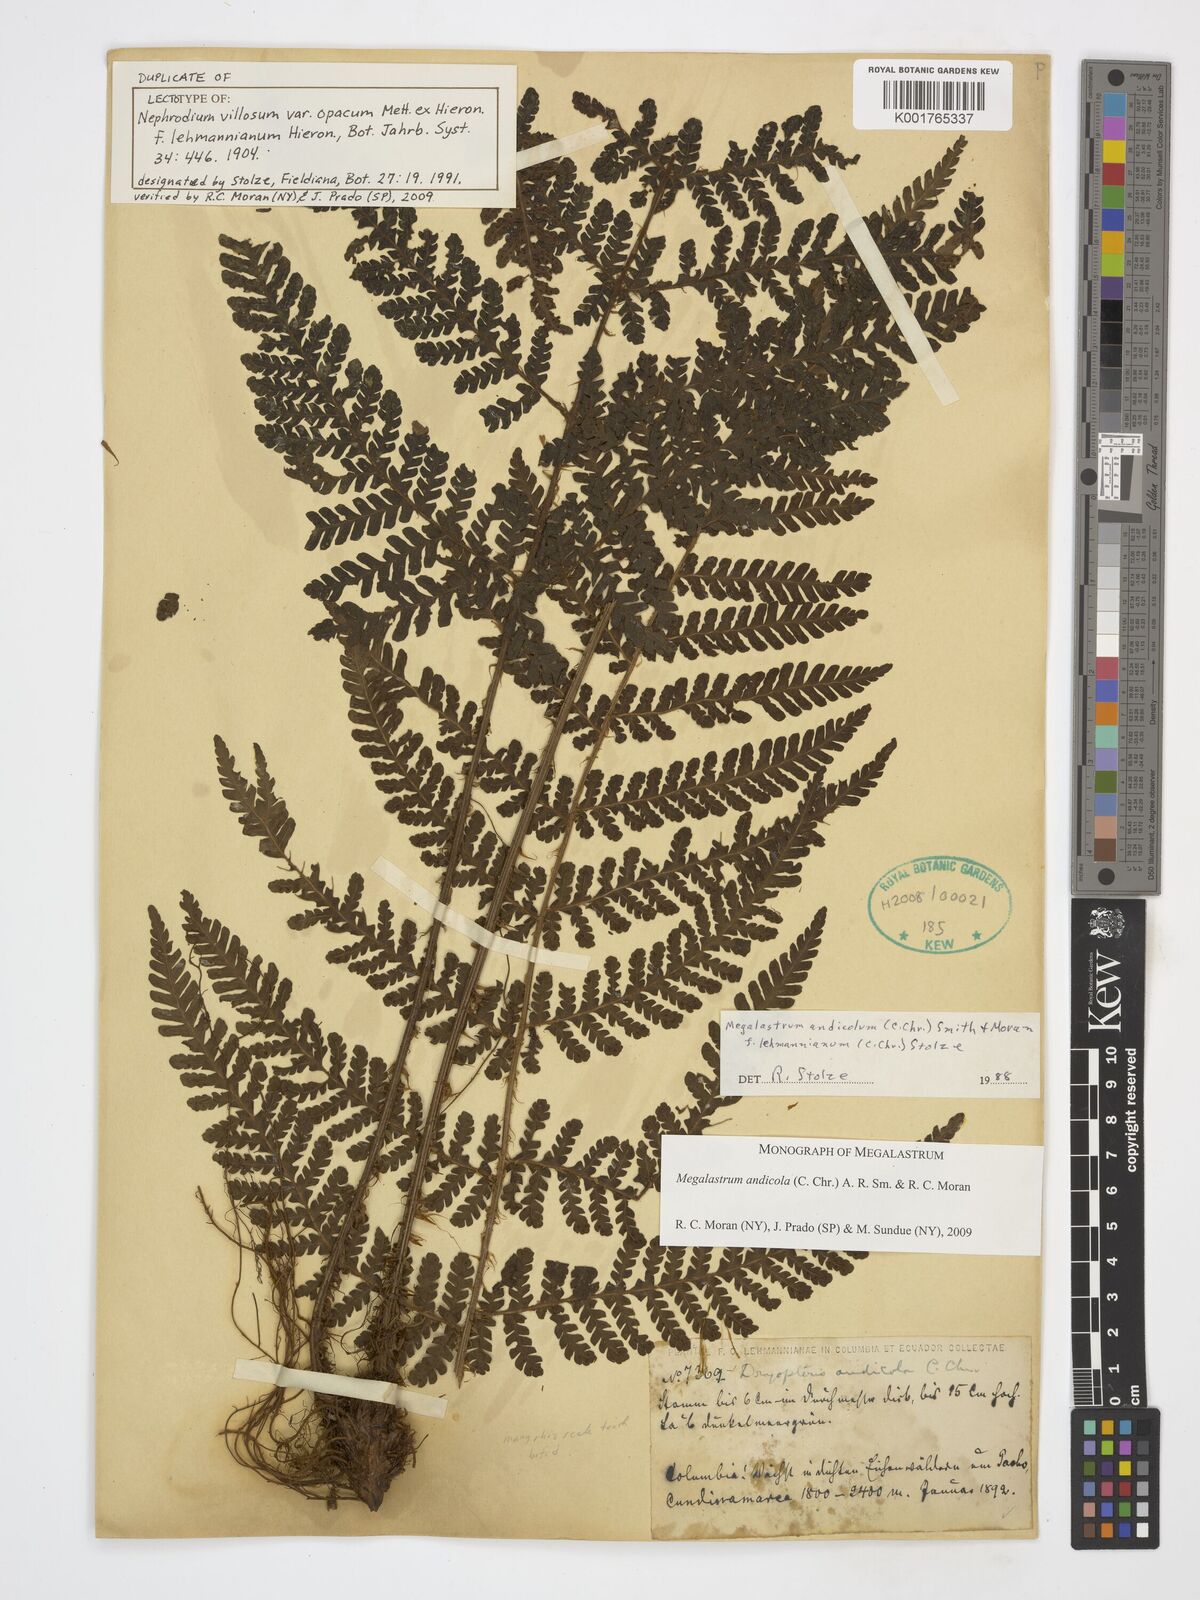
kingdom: Plantae
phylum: Tracheophyta
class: Polypodiopsida
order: Polypodiales
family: Dryopteridaceae
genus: Megalastrum
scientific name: Megalastrum andicola
